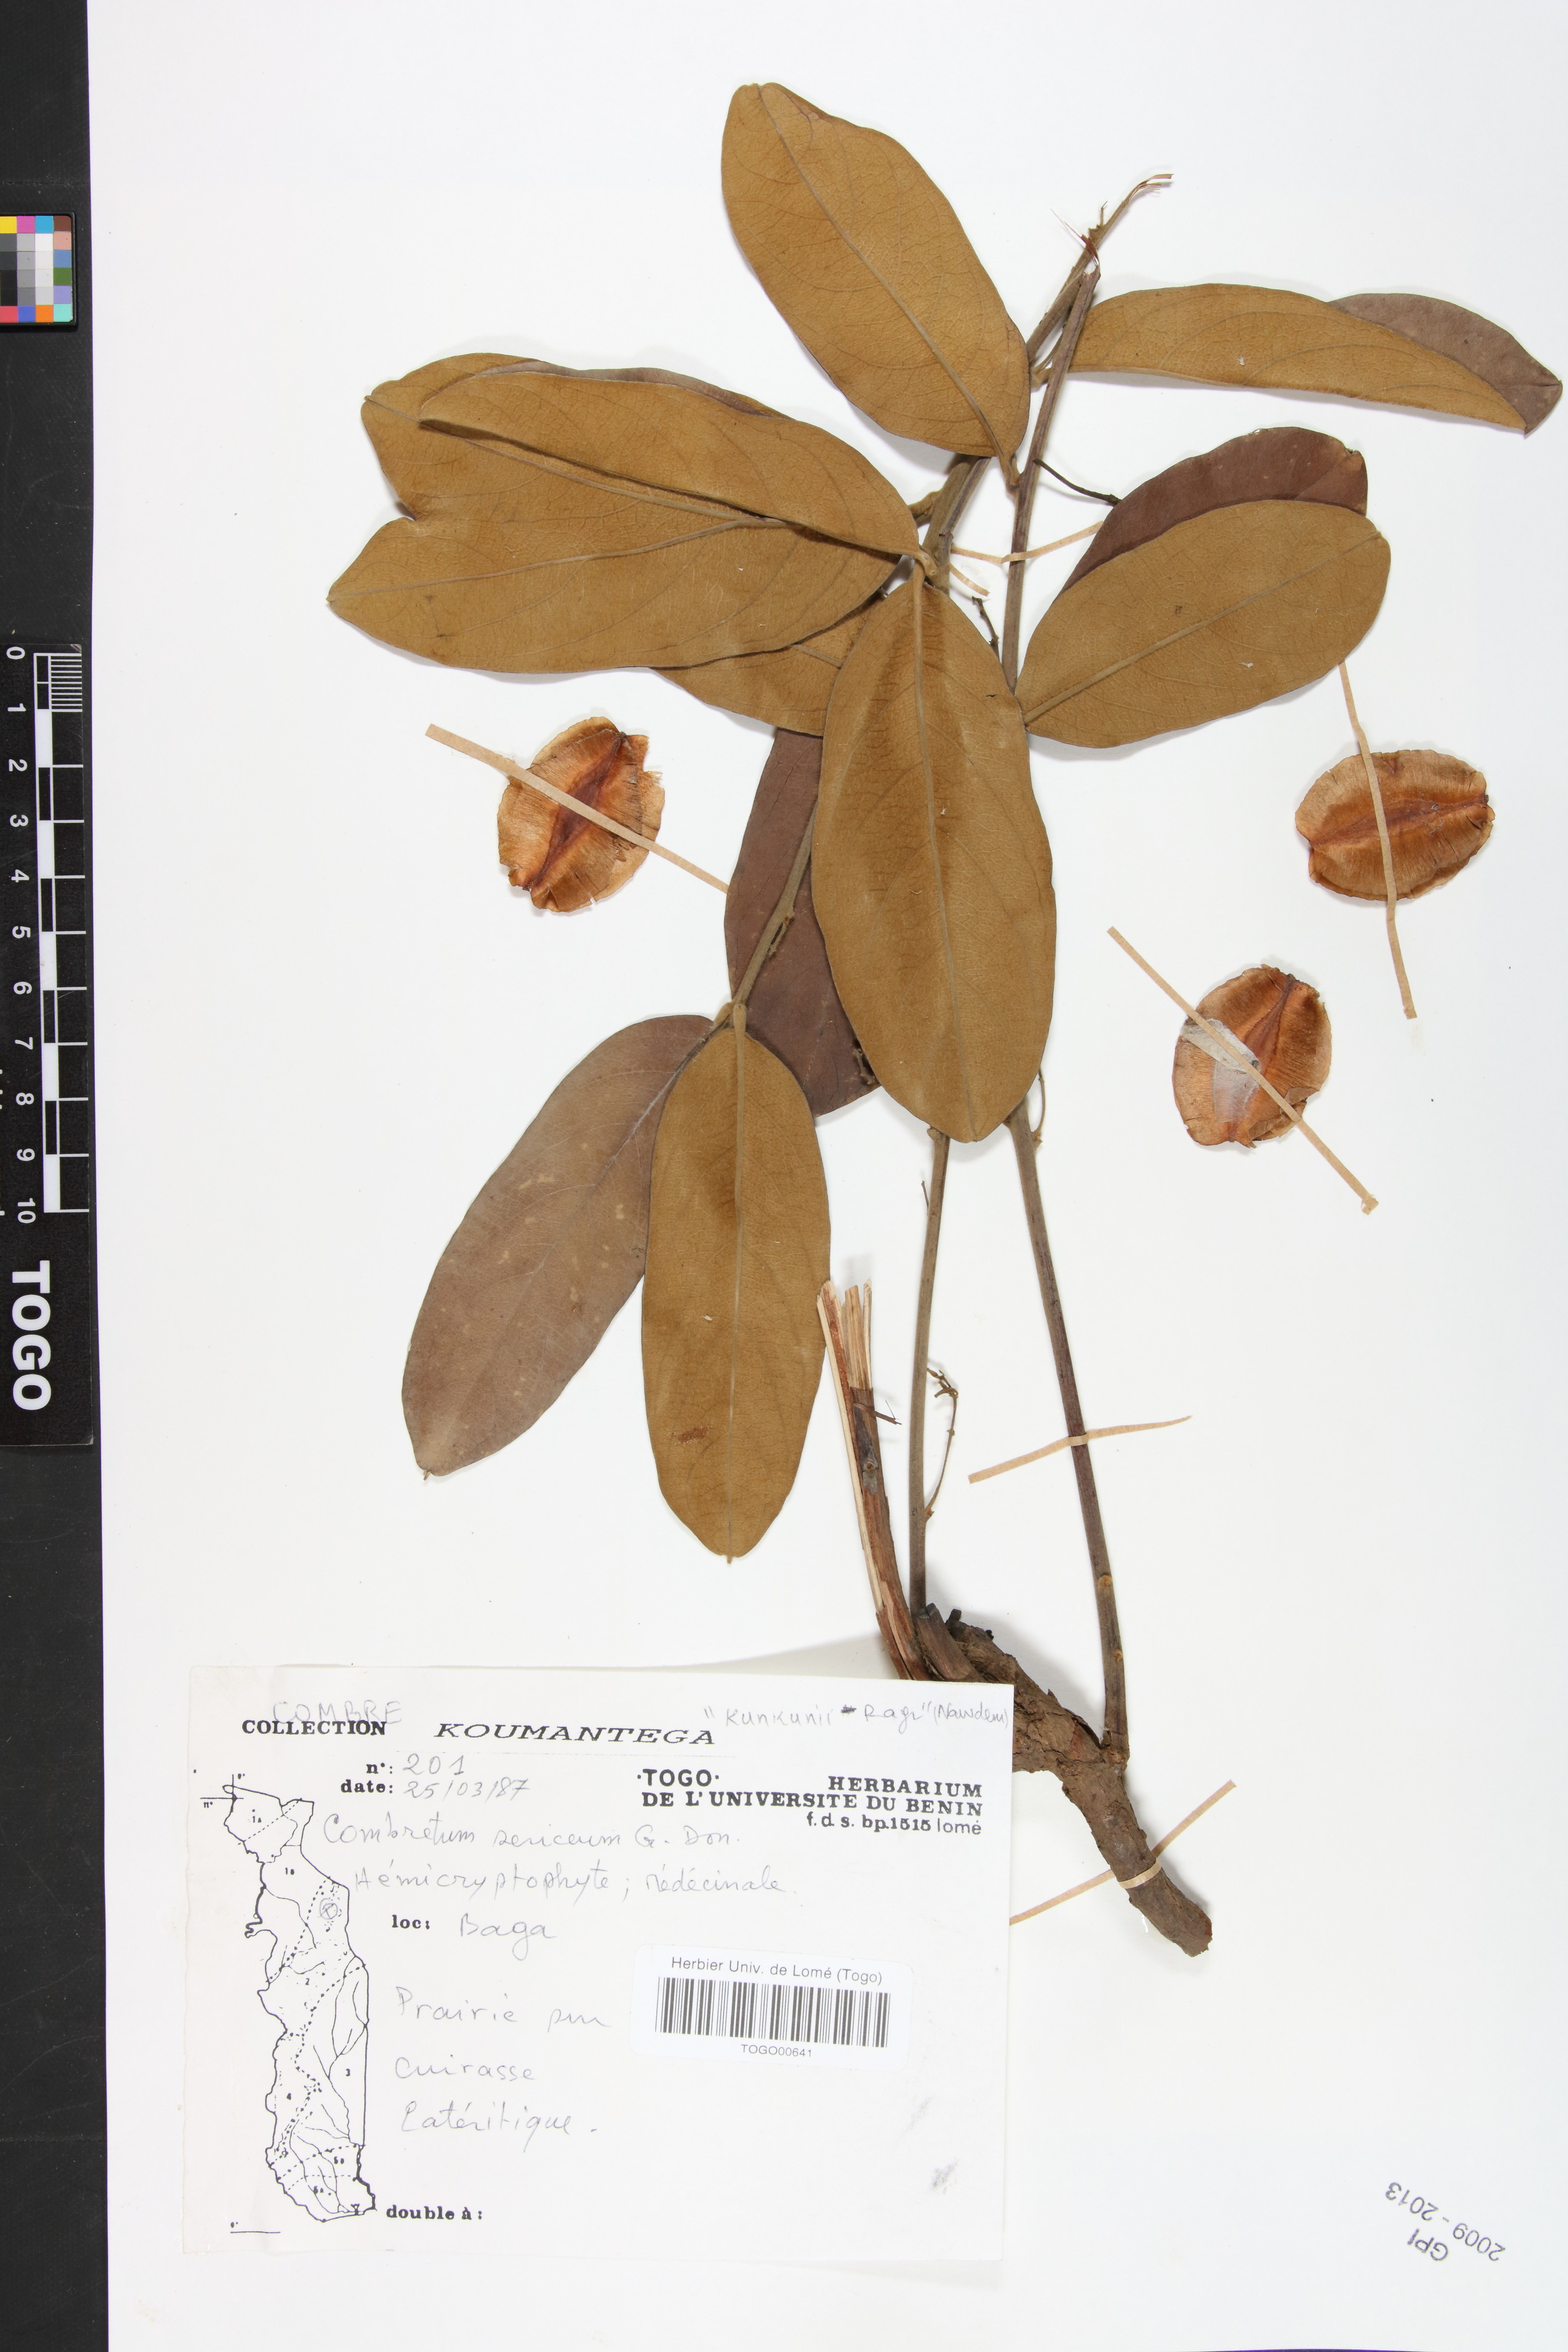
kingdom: Plantae
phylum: Tracheophyta
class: Magnoliopsida
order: Myrtales
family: Combretaceae
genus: Combretum
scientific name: Combretum sericeum
